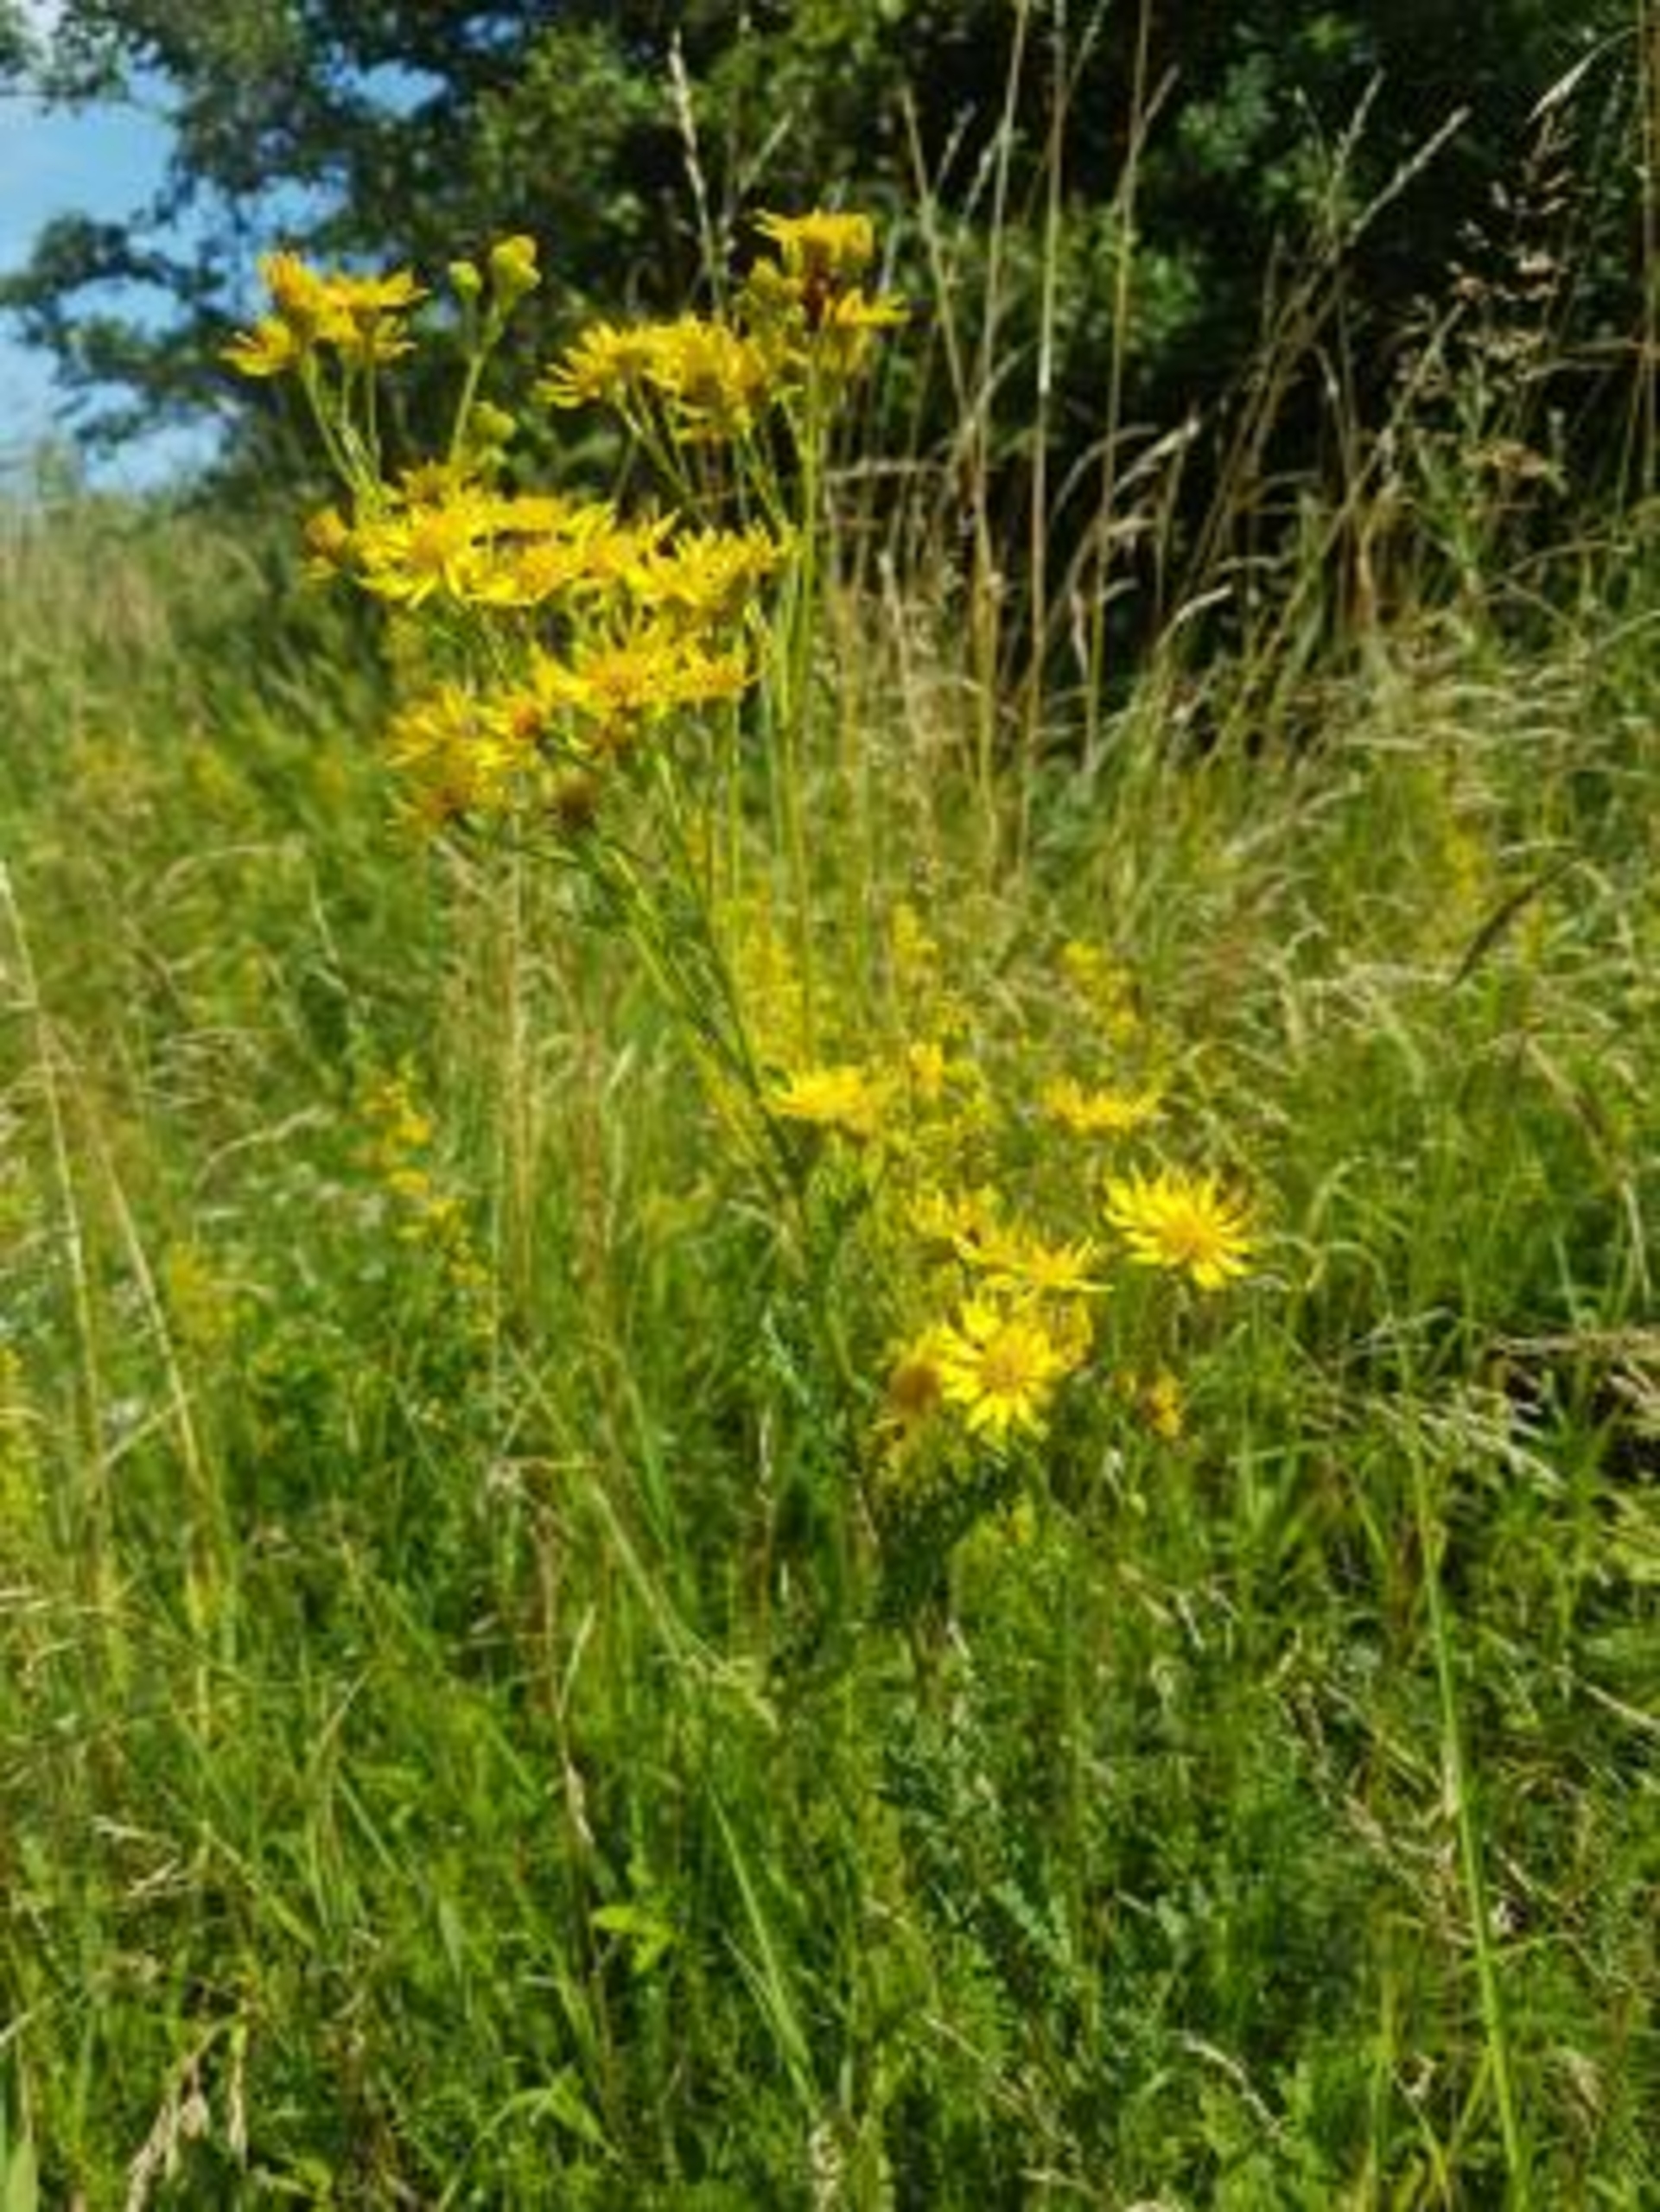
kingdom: Plantae
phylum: Tracheophyta
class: Magnoliopsida
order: Asterales
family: Asteraceae
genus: Jacobaea
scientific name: Jacobaea vulgaris
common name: Eng-brandbæger
